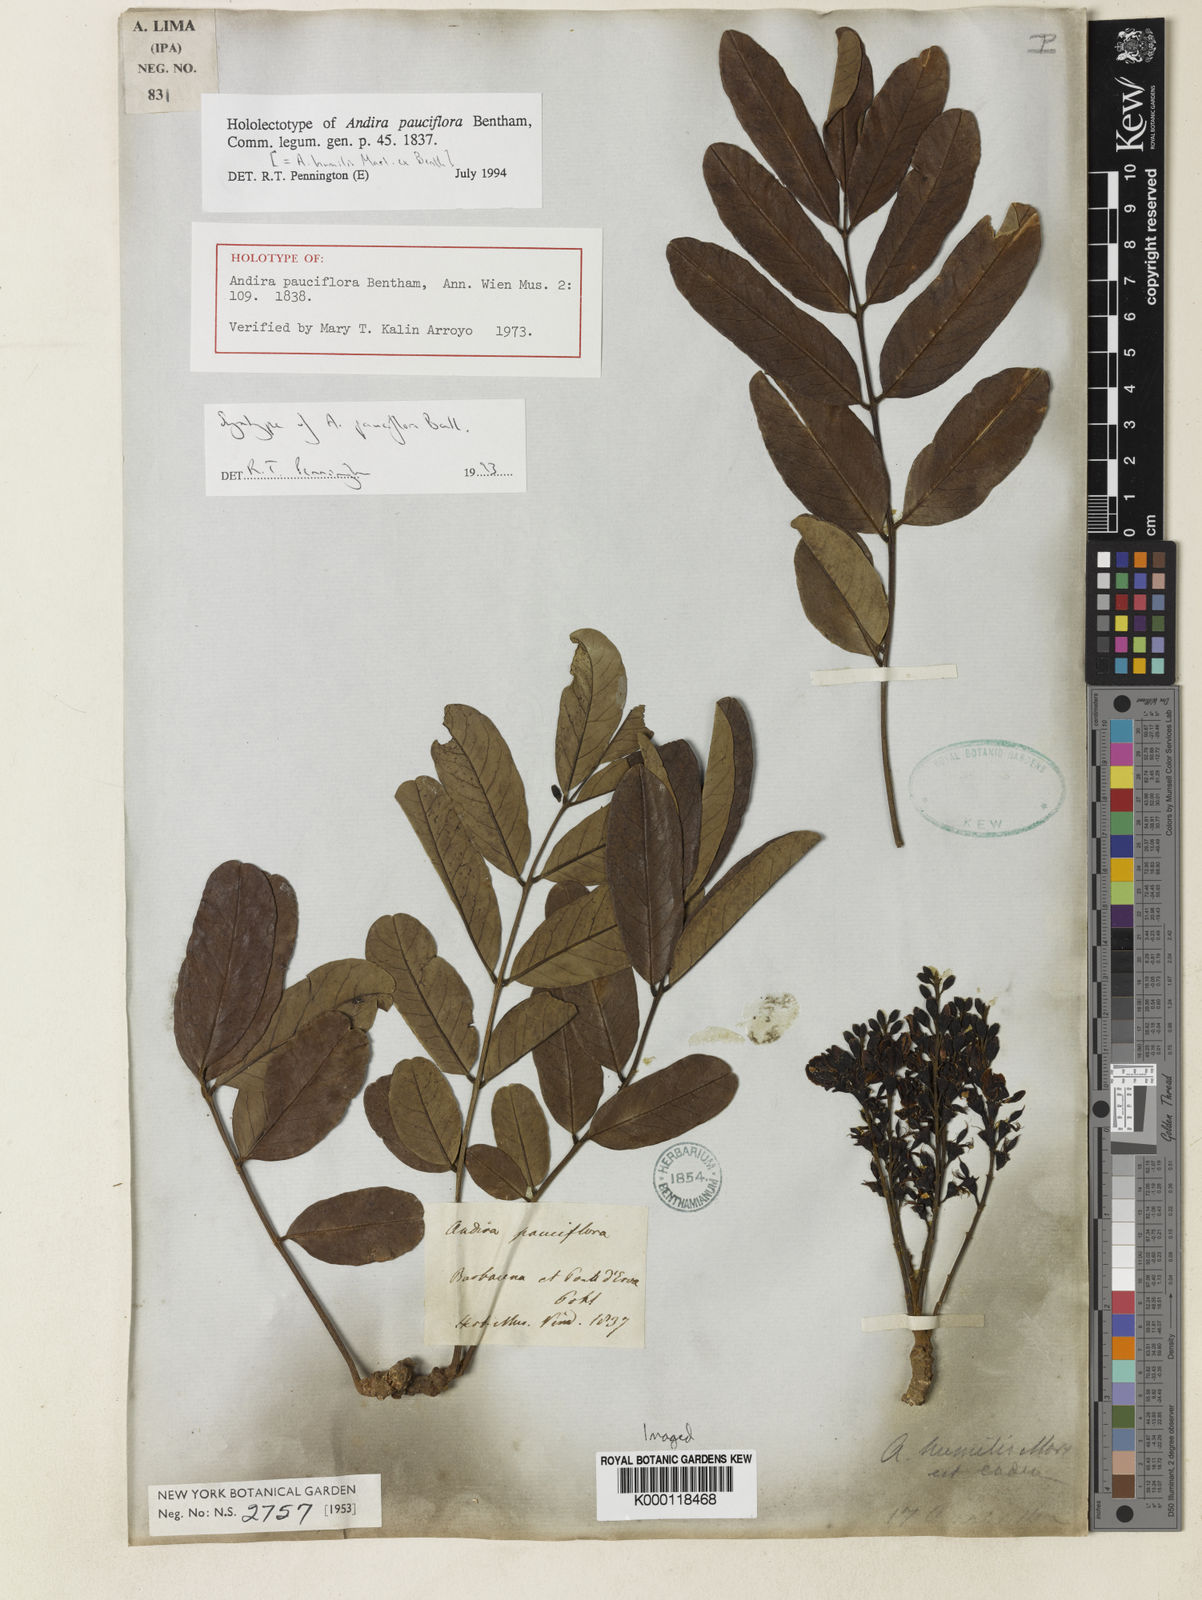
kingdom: Plantae
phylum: Tracheophyta
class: Magnoliopsida
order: Fabales
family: Fabaceae
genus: Andira
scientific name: Andira humilis
